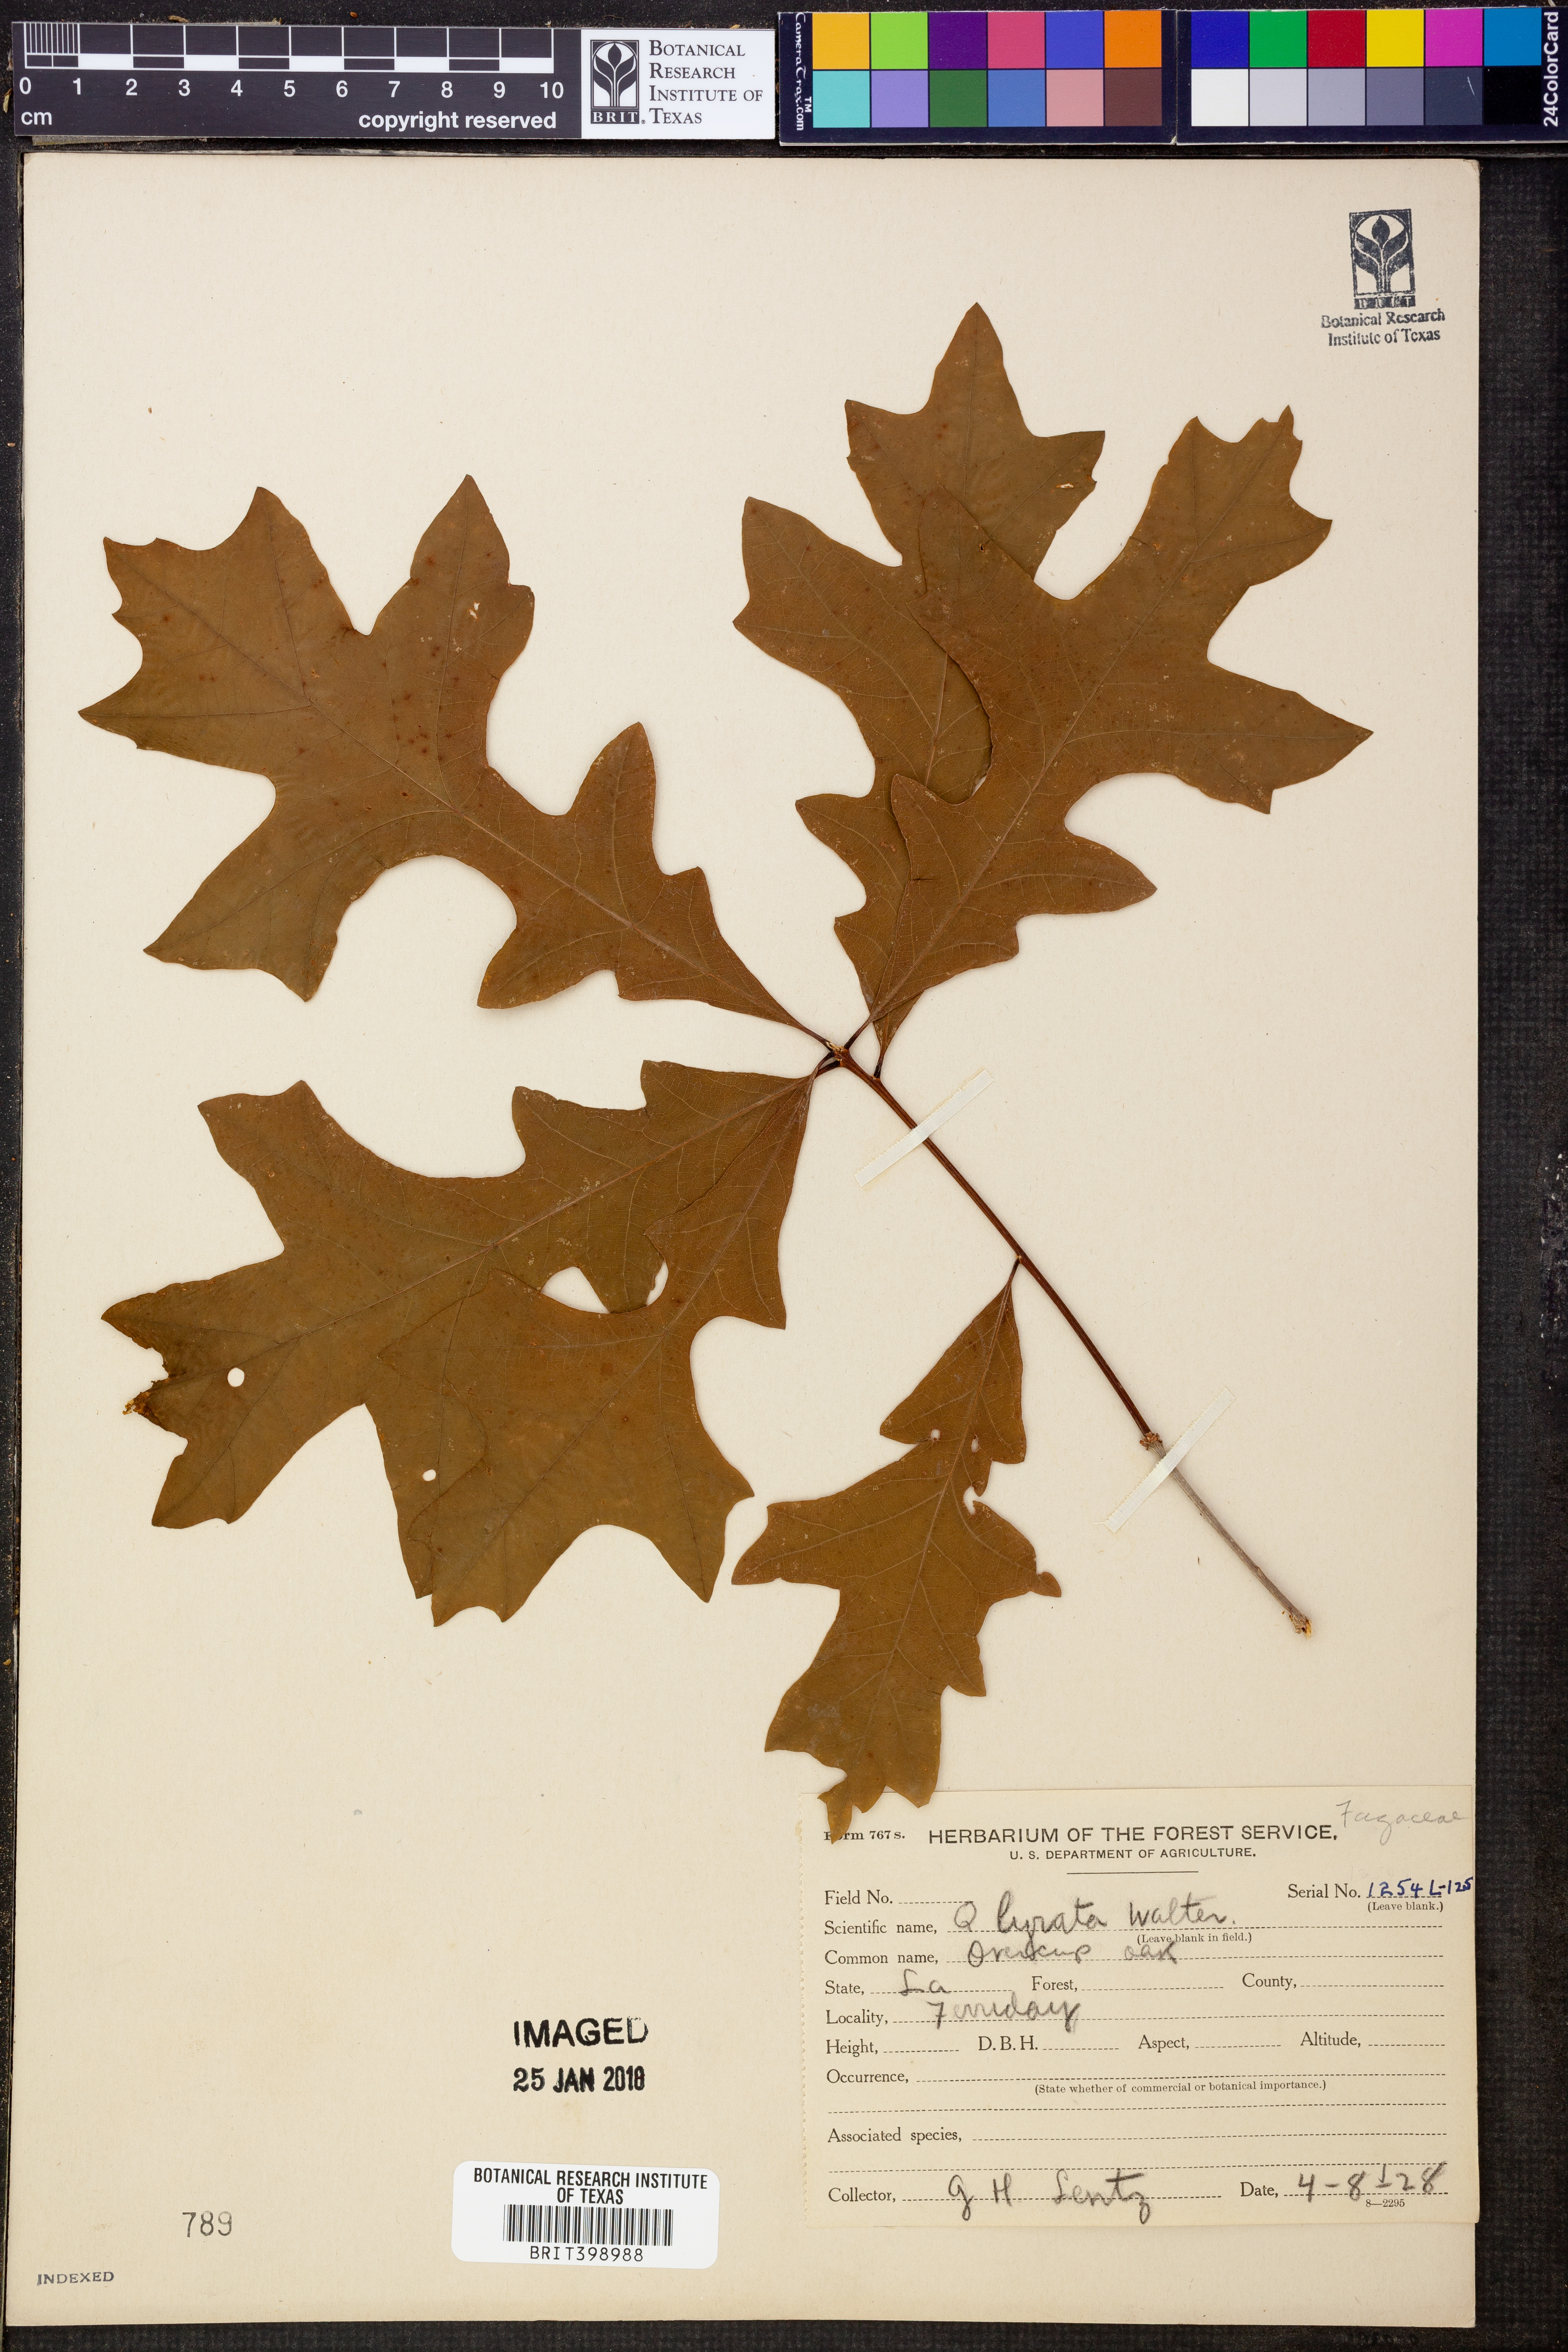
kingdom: Plantae
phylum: Tracheophyta
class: Magnoliopsida
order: Fagales
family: Fagaceae
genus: Quercus
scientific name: Quercus lyrata
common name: Overcup oak
